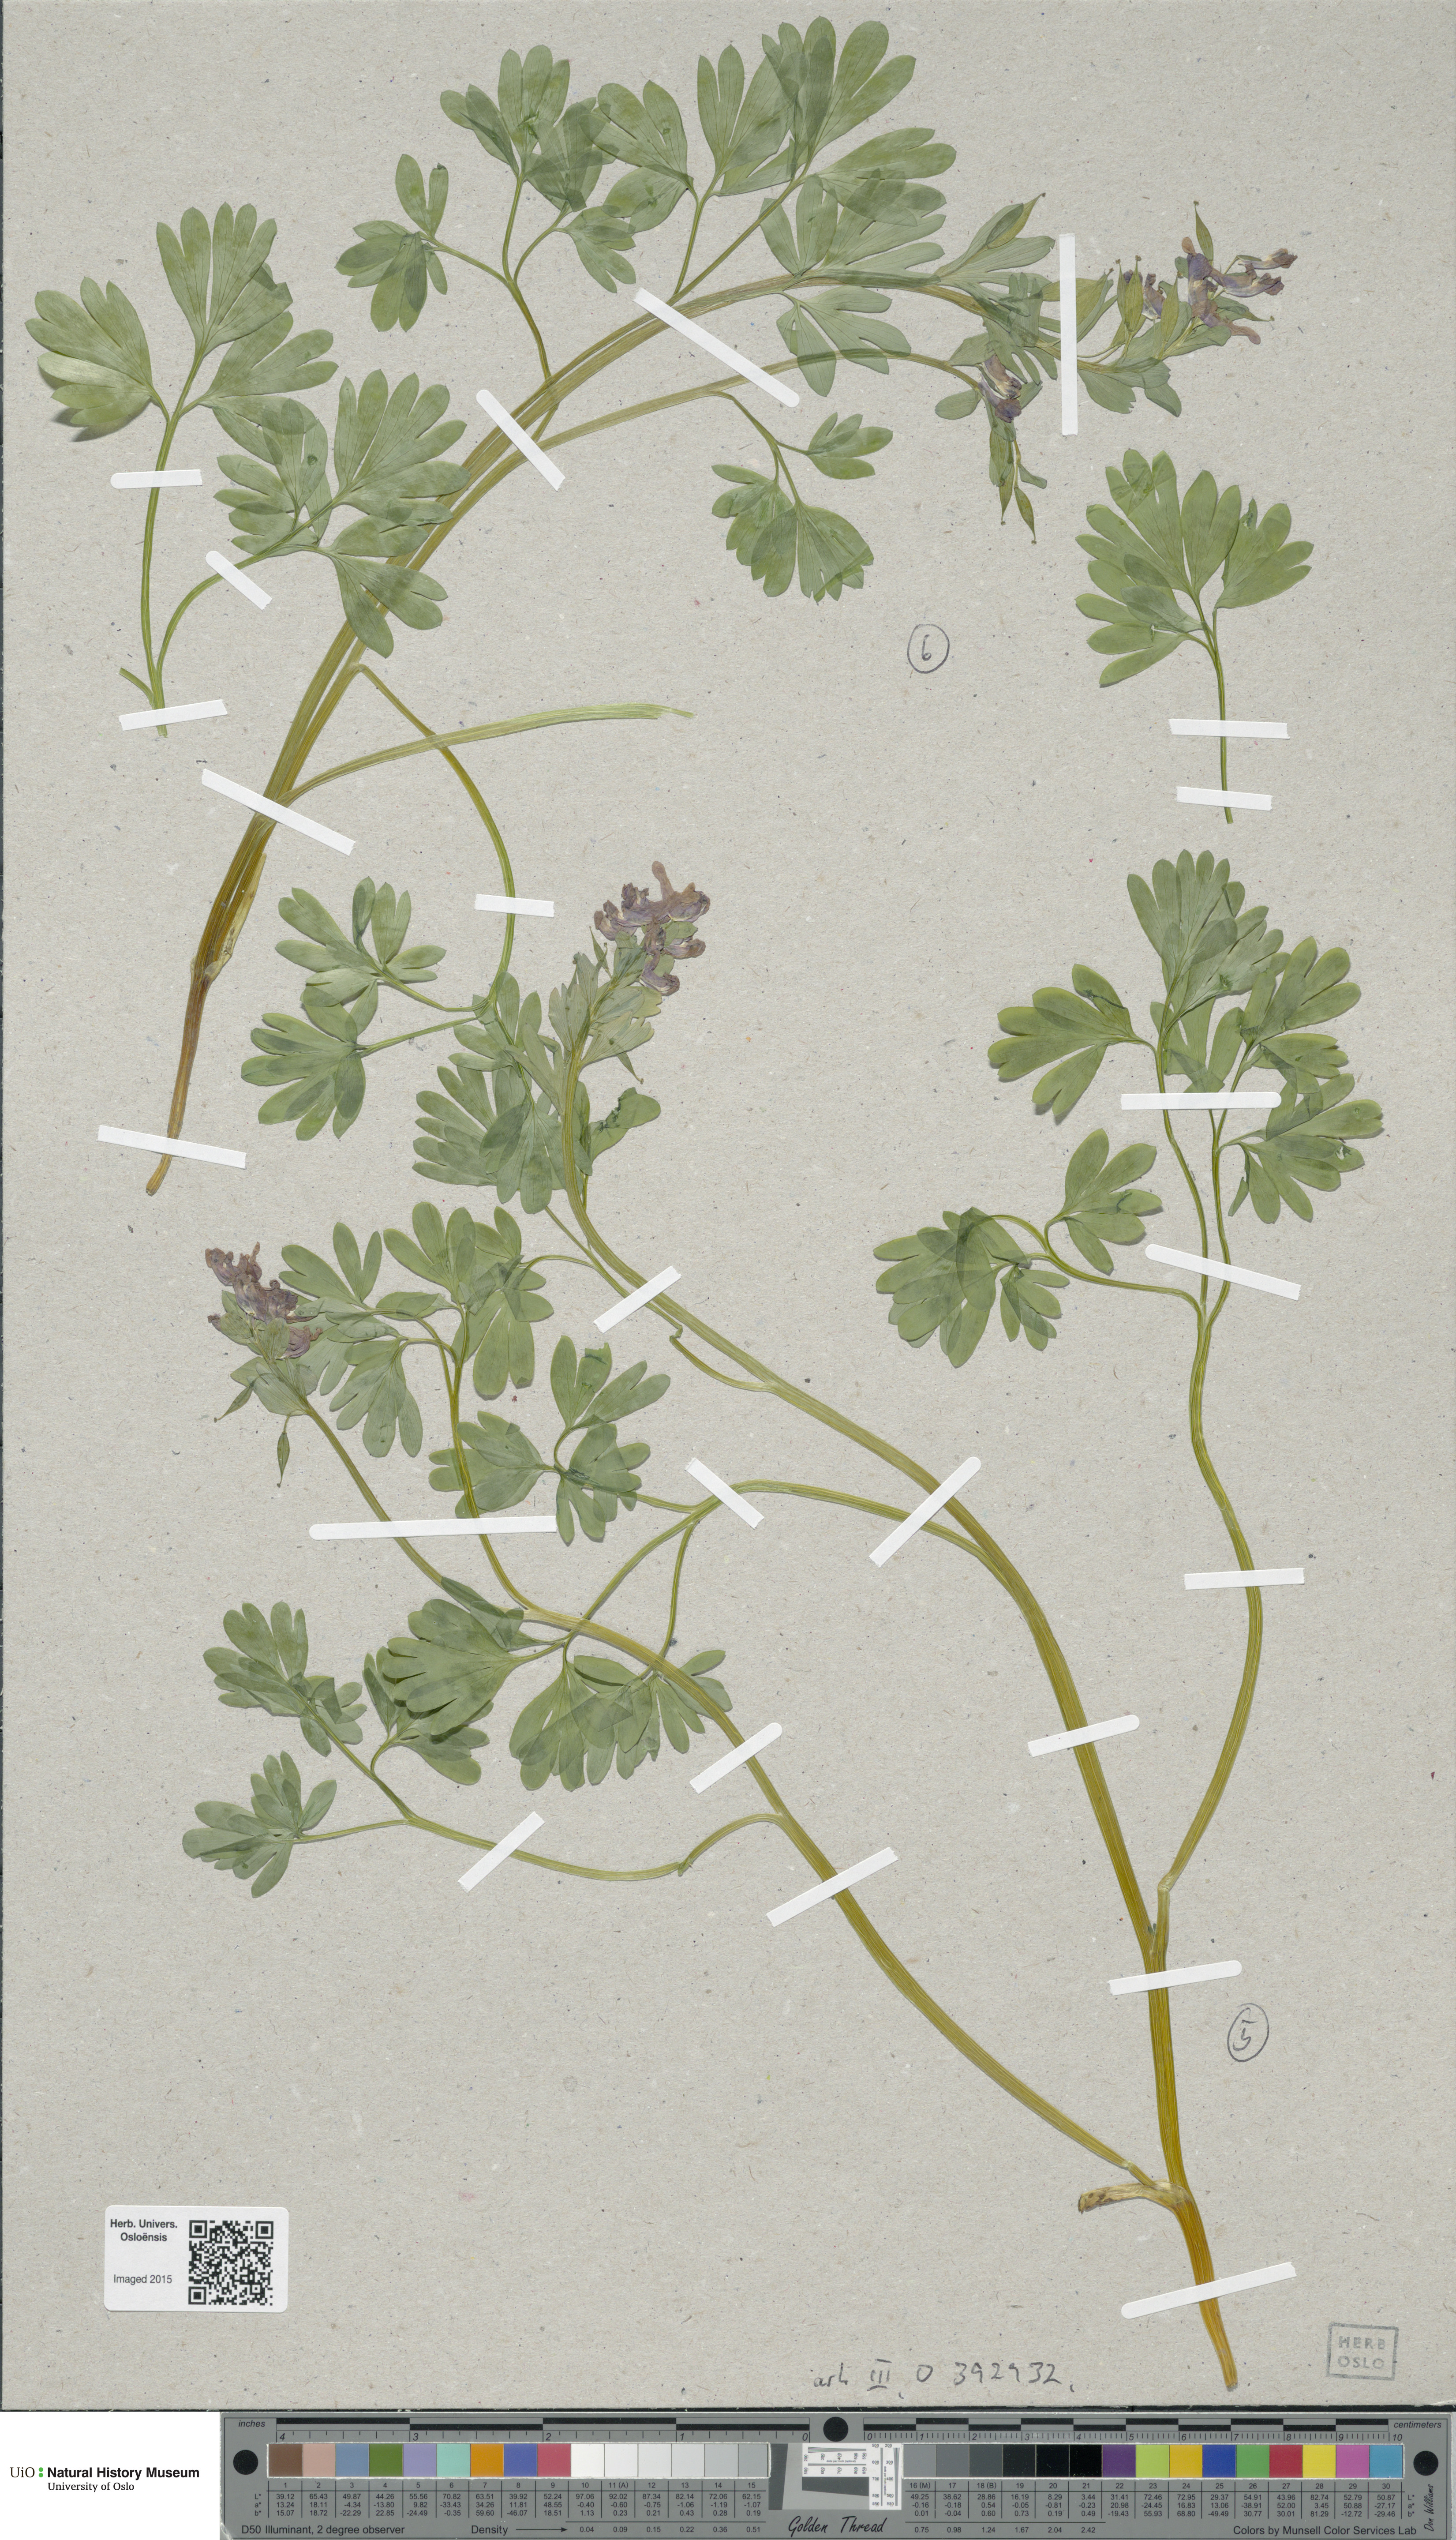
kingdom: Plantae
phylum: Tracheophyta
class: Magnoliopsida
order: Ranunculales
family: Papaveraceae
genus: Corydalis
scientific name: Corydalis
